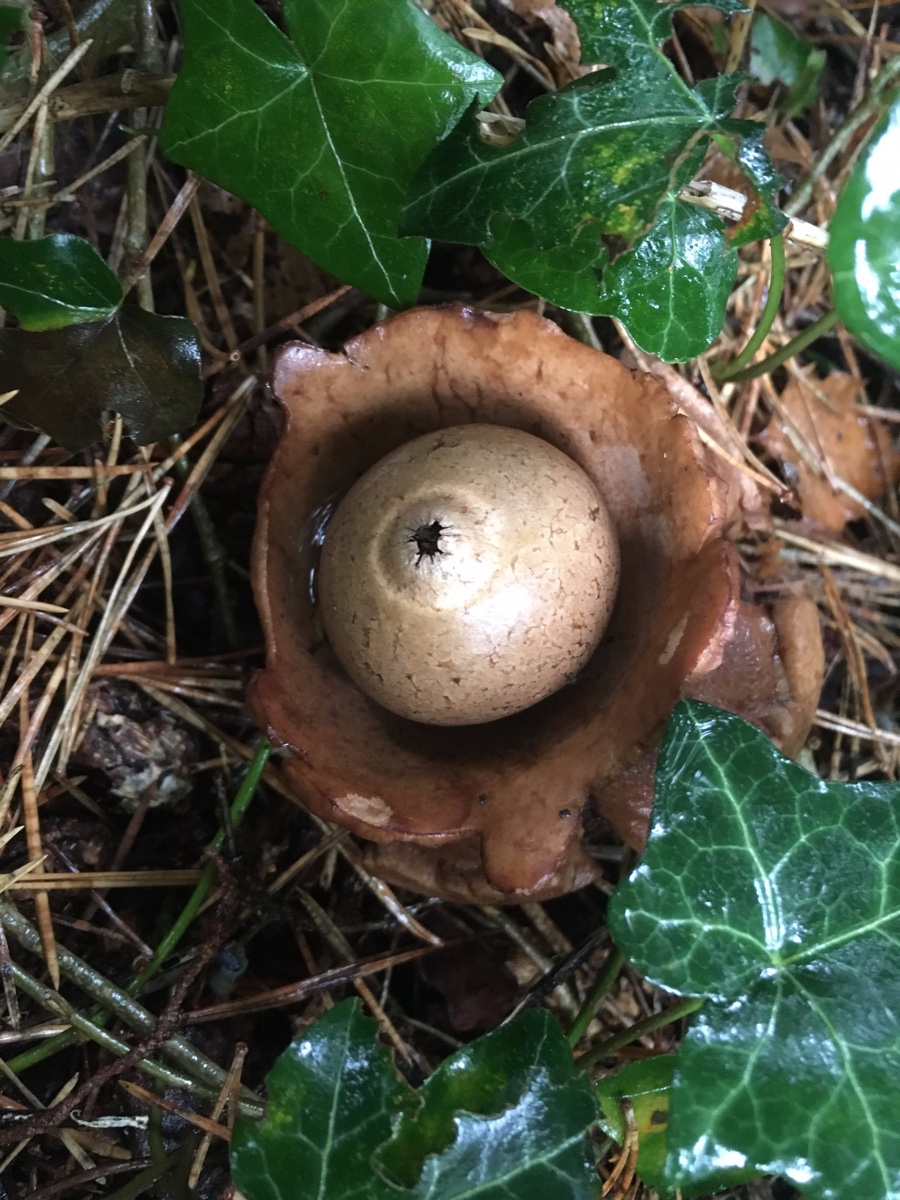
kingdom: Fungi
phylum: Basidiomycota
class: Agaricomycetes
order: Geastrales
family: Geastraceae
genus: Geastrum
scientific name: Geastrum michelianum
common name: kødet stjernebold
